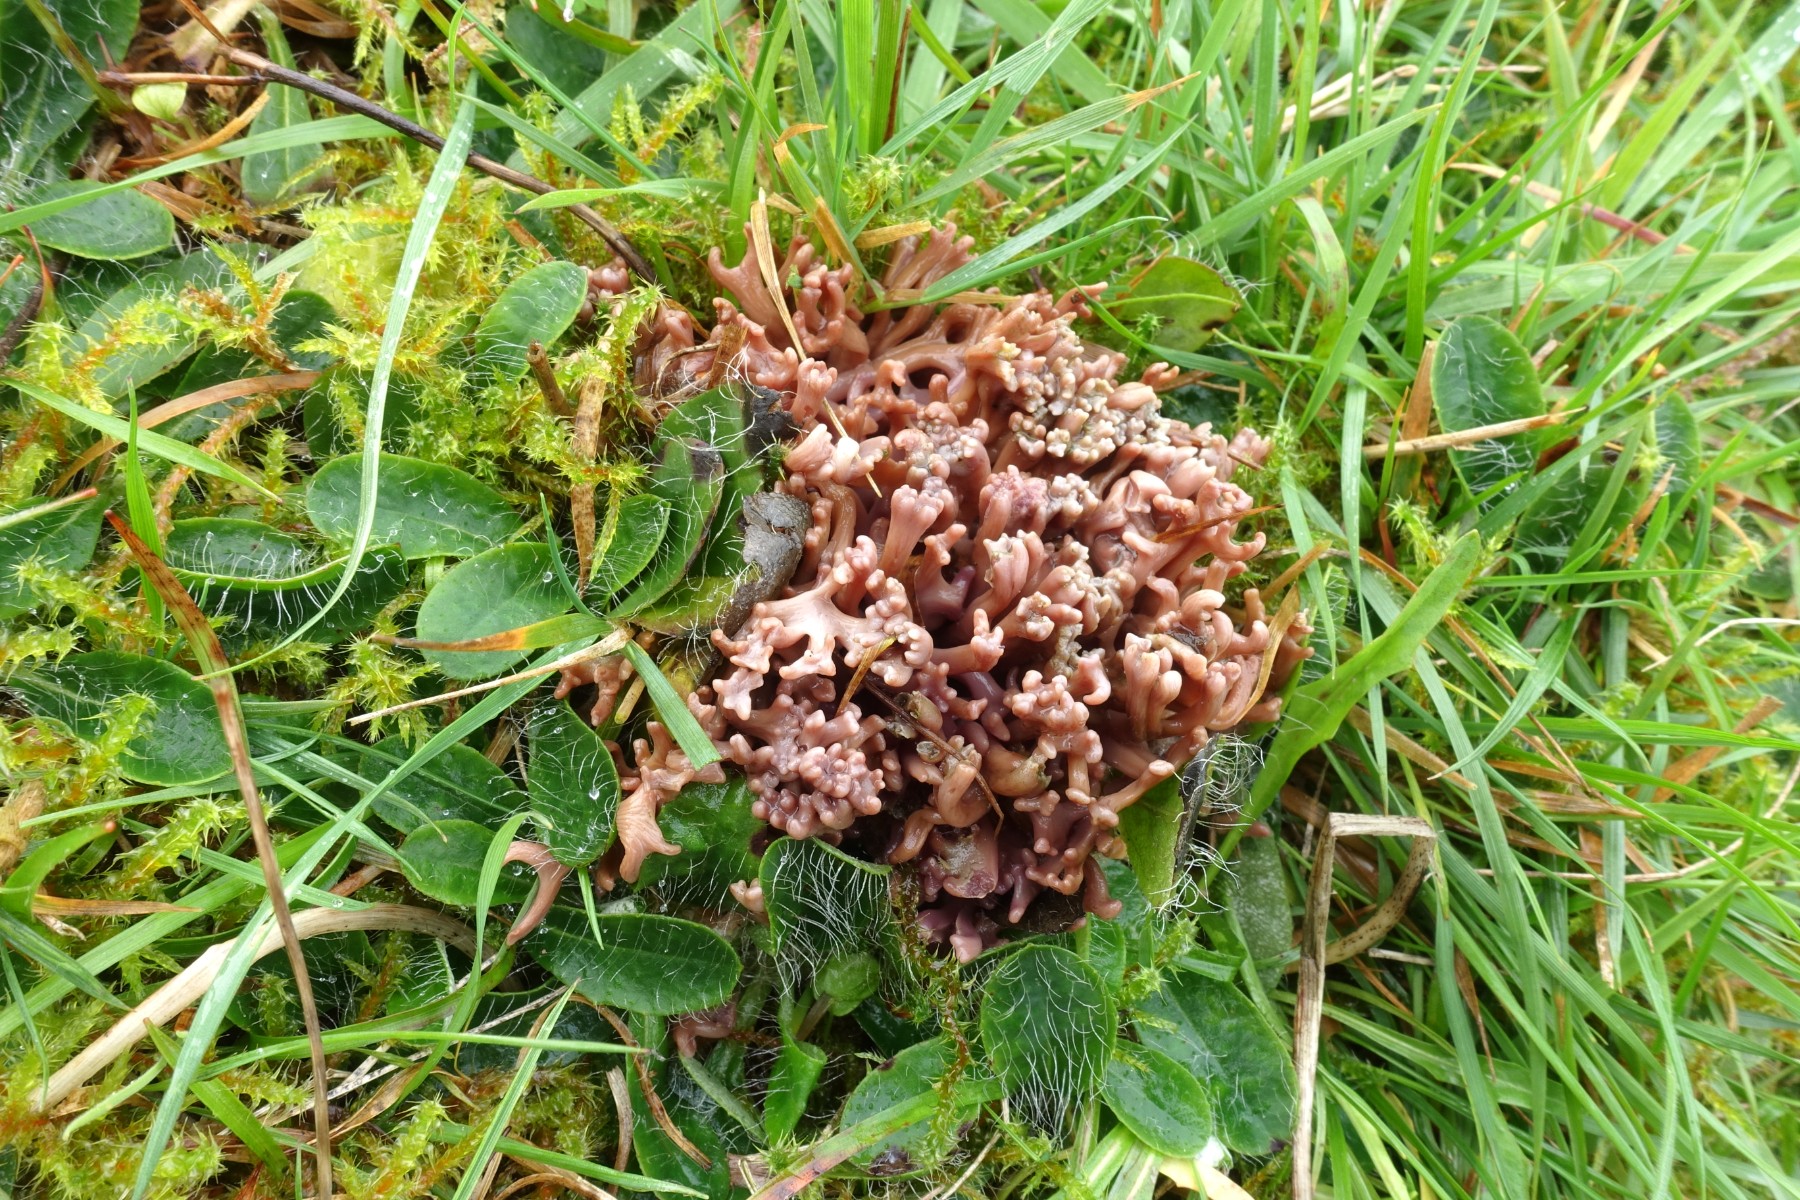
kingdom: Fungi
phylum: Basidiomycota
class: Agaricomycetes
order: Agaricales
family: Clavariaceae
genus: Clavaria
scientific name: Clavaria zollingeri
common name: purpur-køllesvamp
